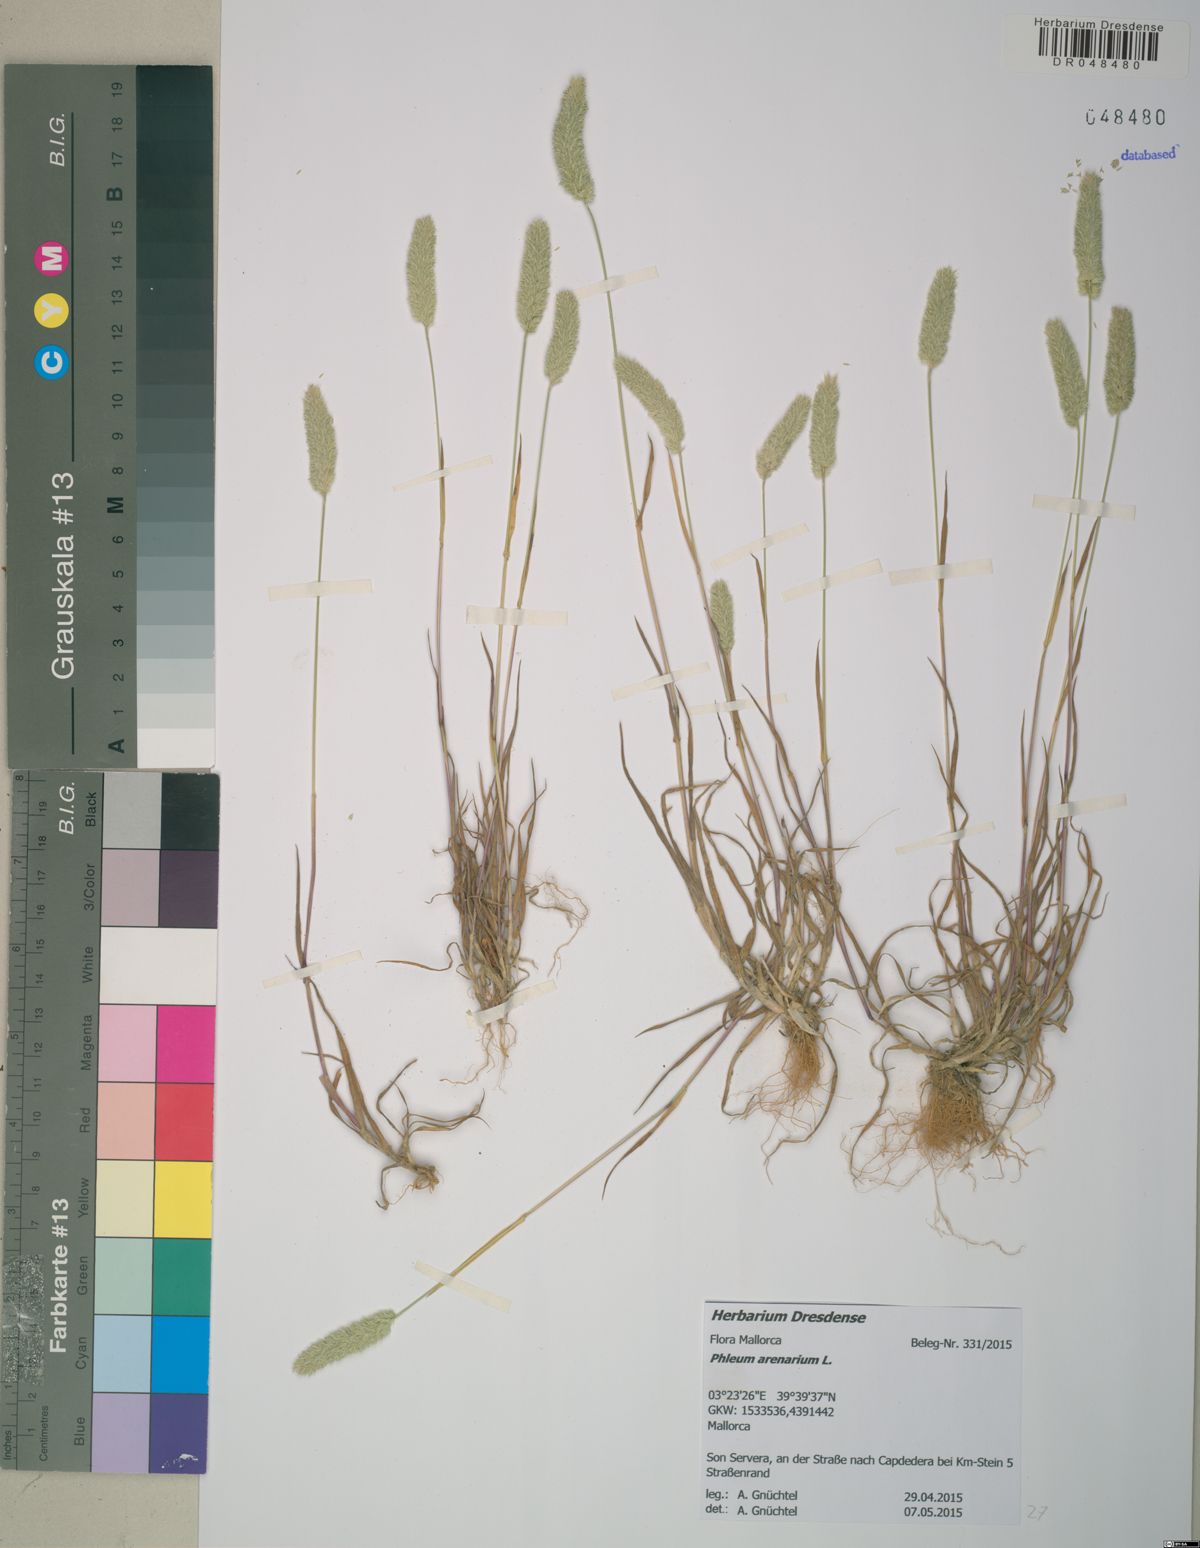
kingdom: Plantae
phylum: Tracheophyta
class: Liliopsida
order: Poales
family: Poaceae
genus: Phleum
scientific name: Phleum arenarium
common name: Sand cat's-tail
